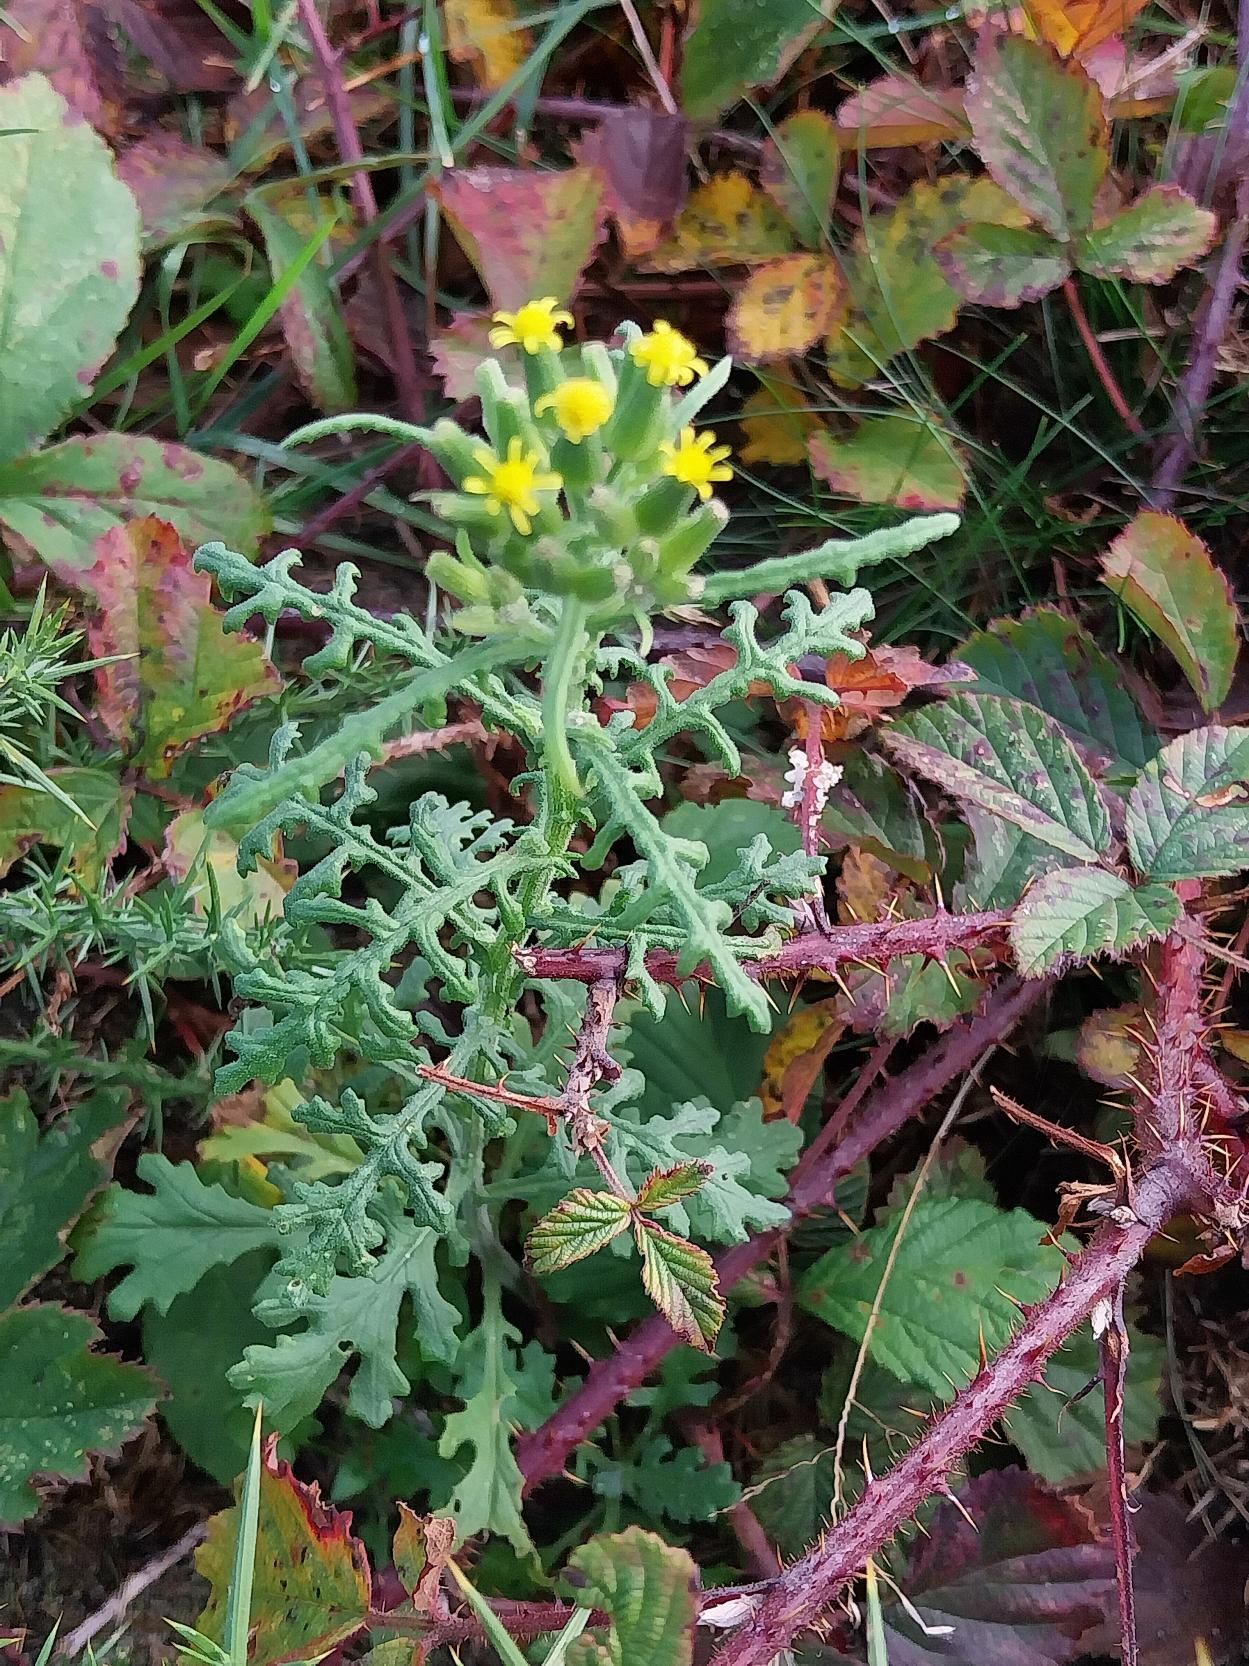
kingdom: Plantae
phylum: Tracheophyta
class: Magnoliopsida
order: Asterales
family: Asteraceae
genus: Senecio
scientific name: Senecio sylvaticus
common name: Skov-brandbæger
